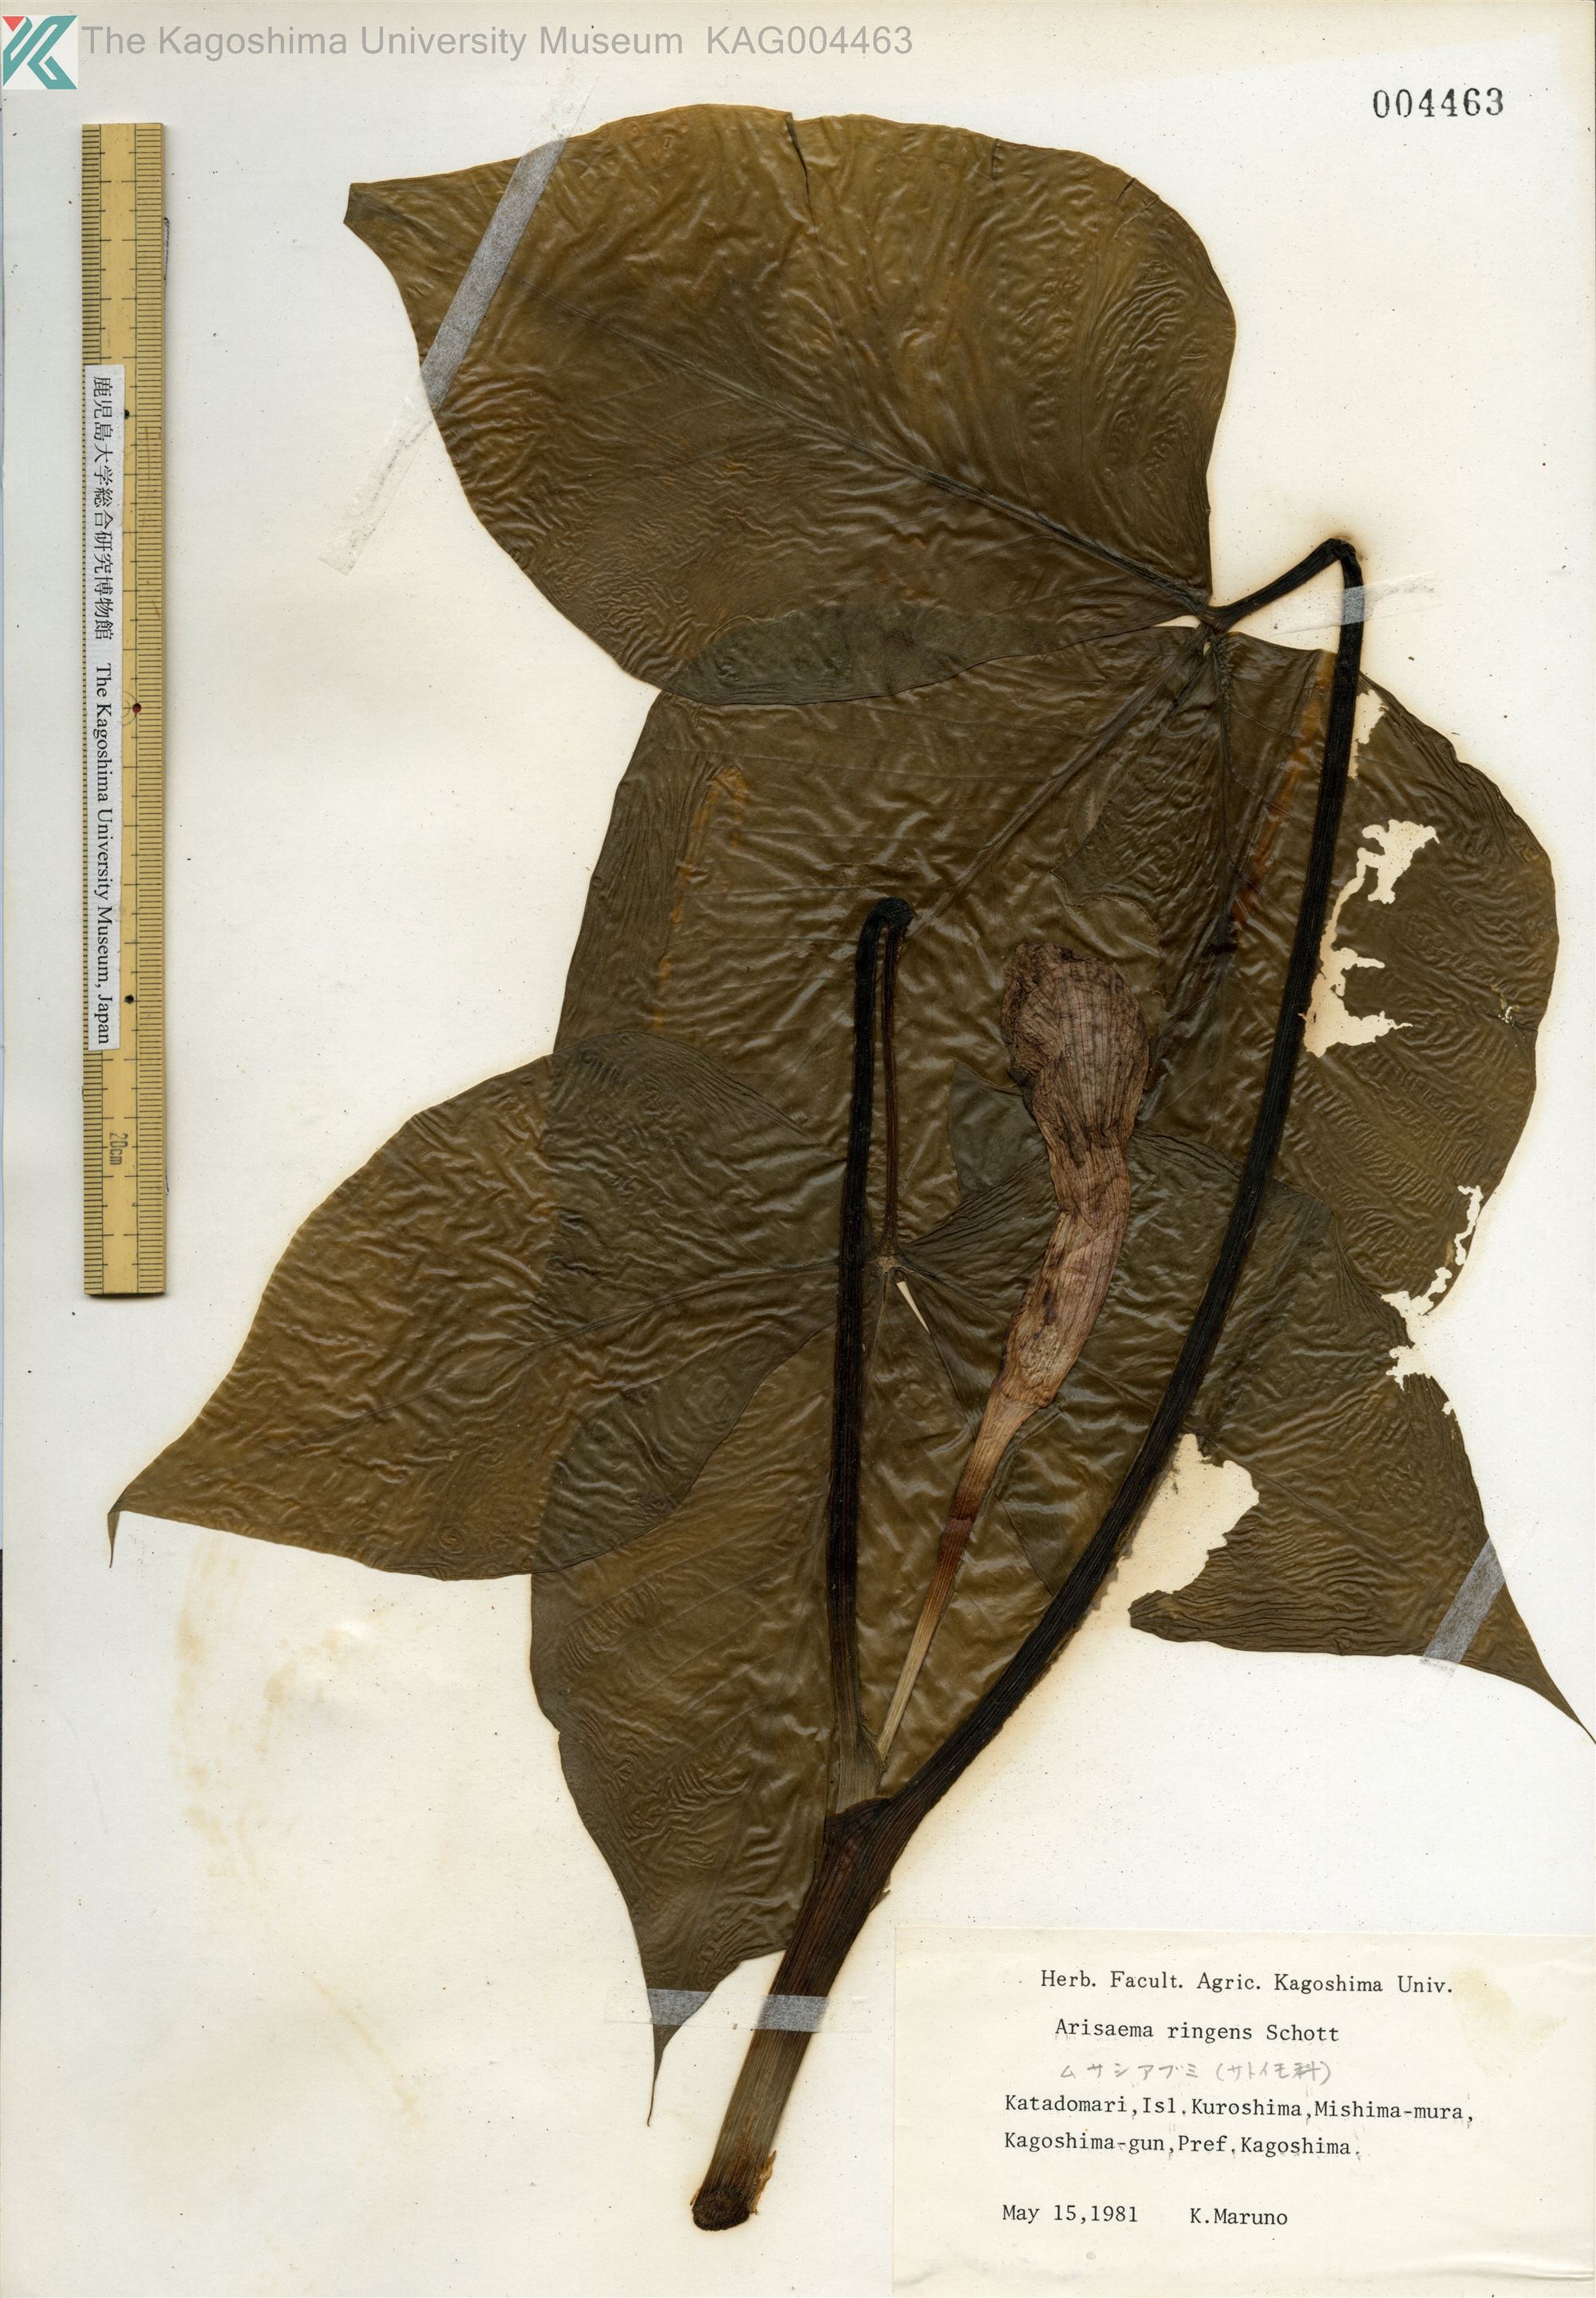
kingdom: Plantae
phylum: Tracheophyta
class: Liliopsida
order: Alismatales
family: Araceae
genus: Arisaema
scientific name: Arisaema ringens
